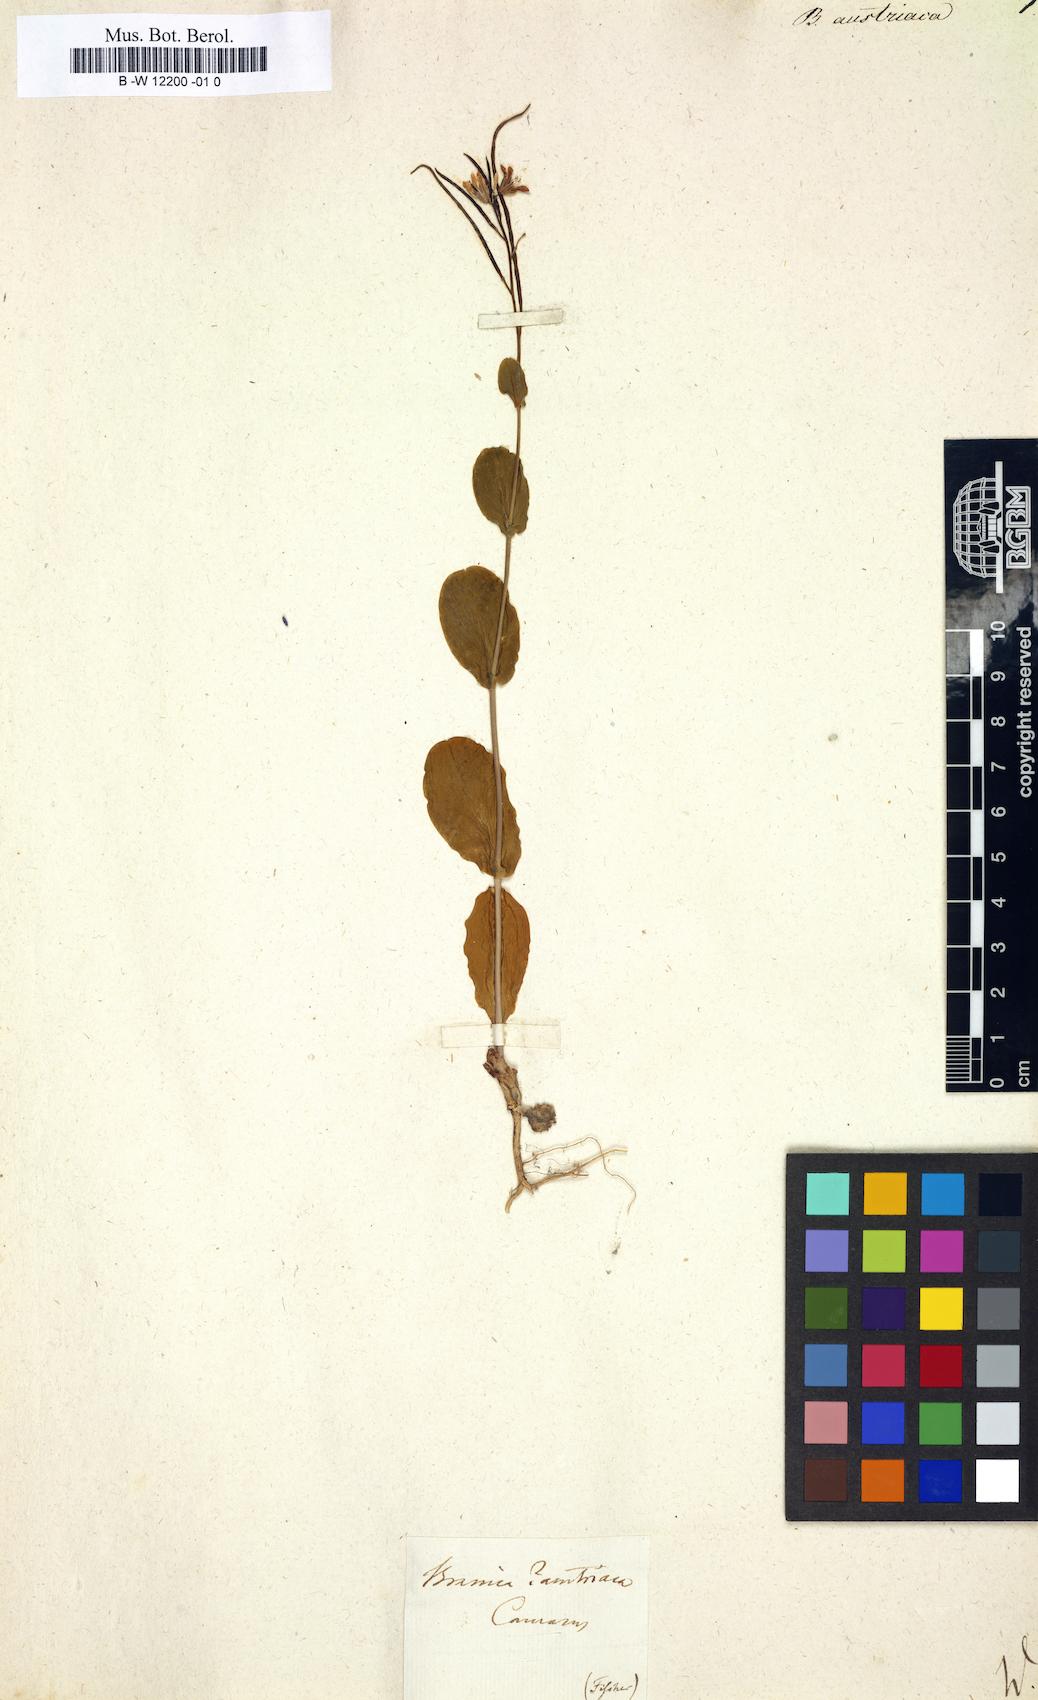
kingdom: Plantae
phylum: Tracheophyta
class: Magnoliopsida
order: Brassicales
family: Brassicaceae
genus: Conringia
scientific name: Conringia austriaca
